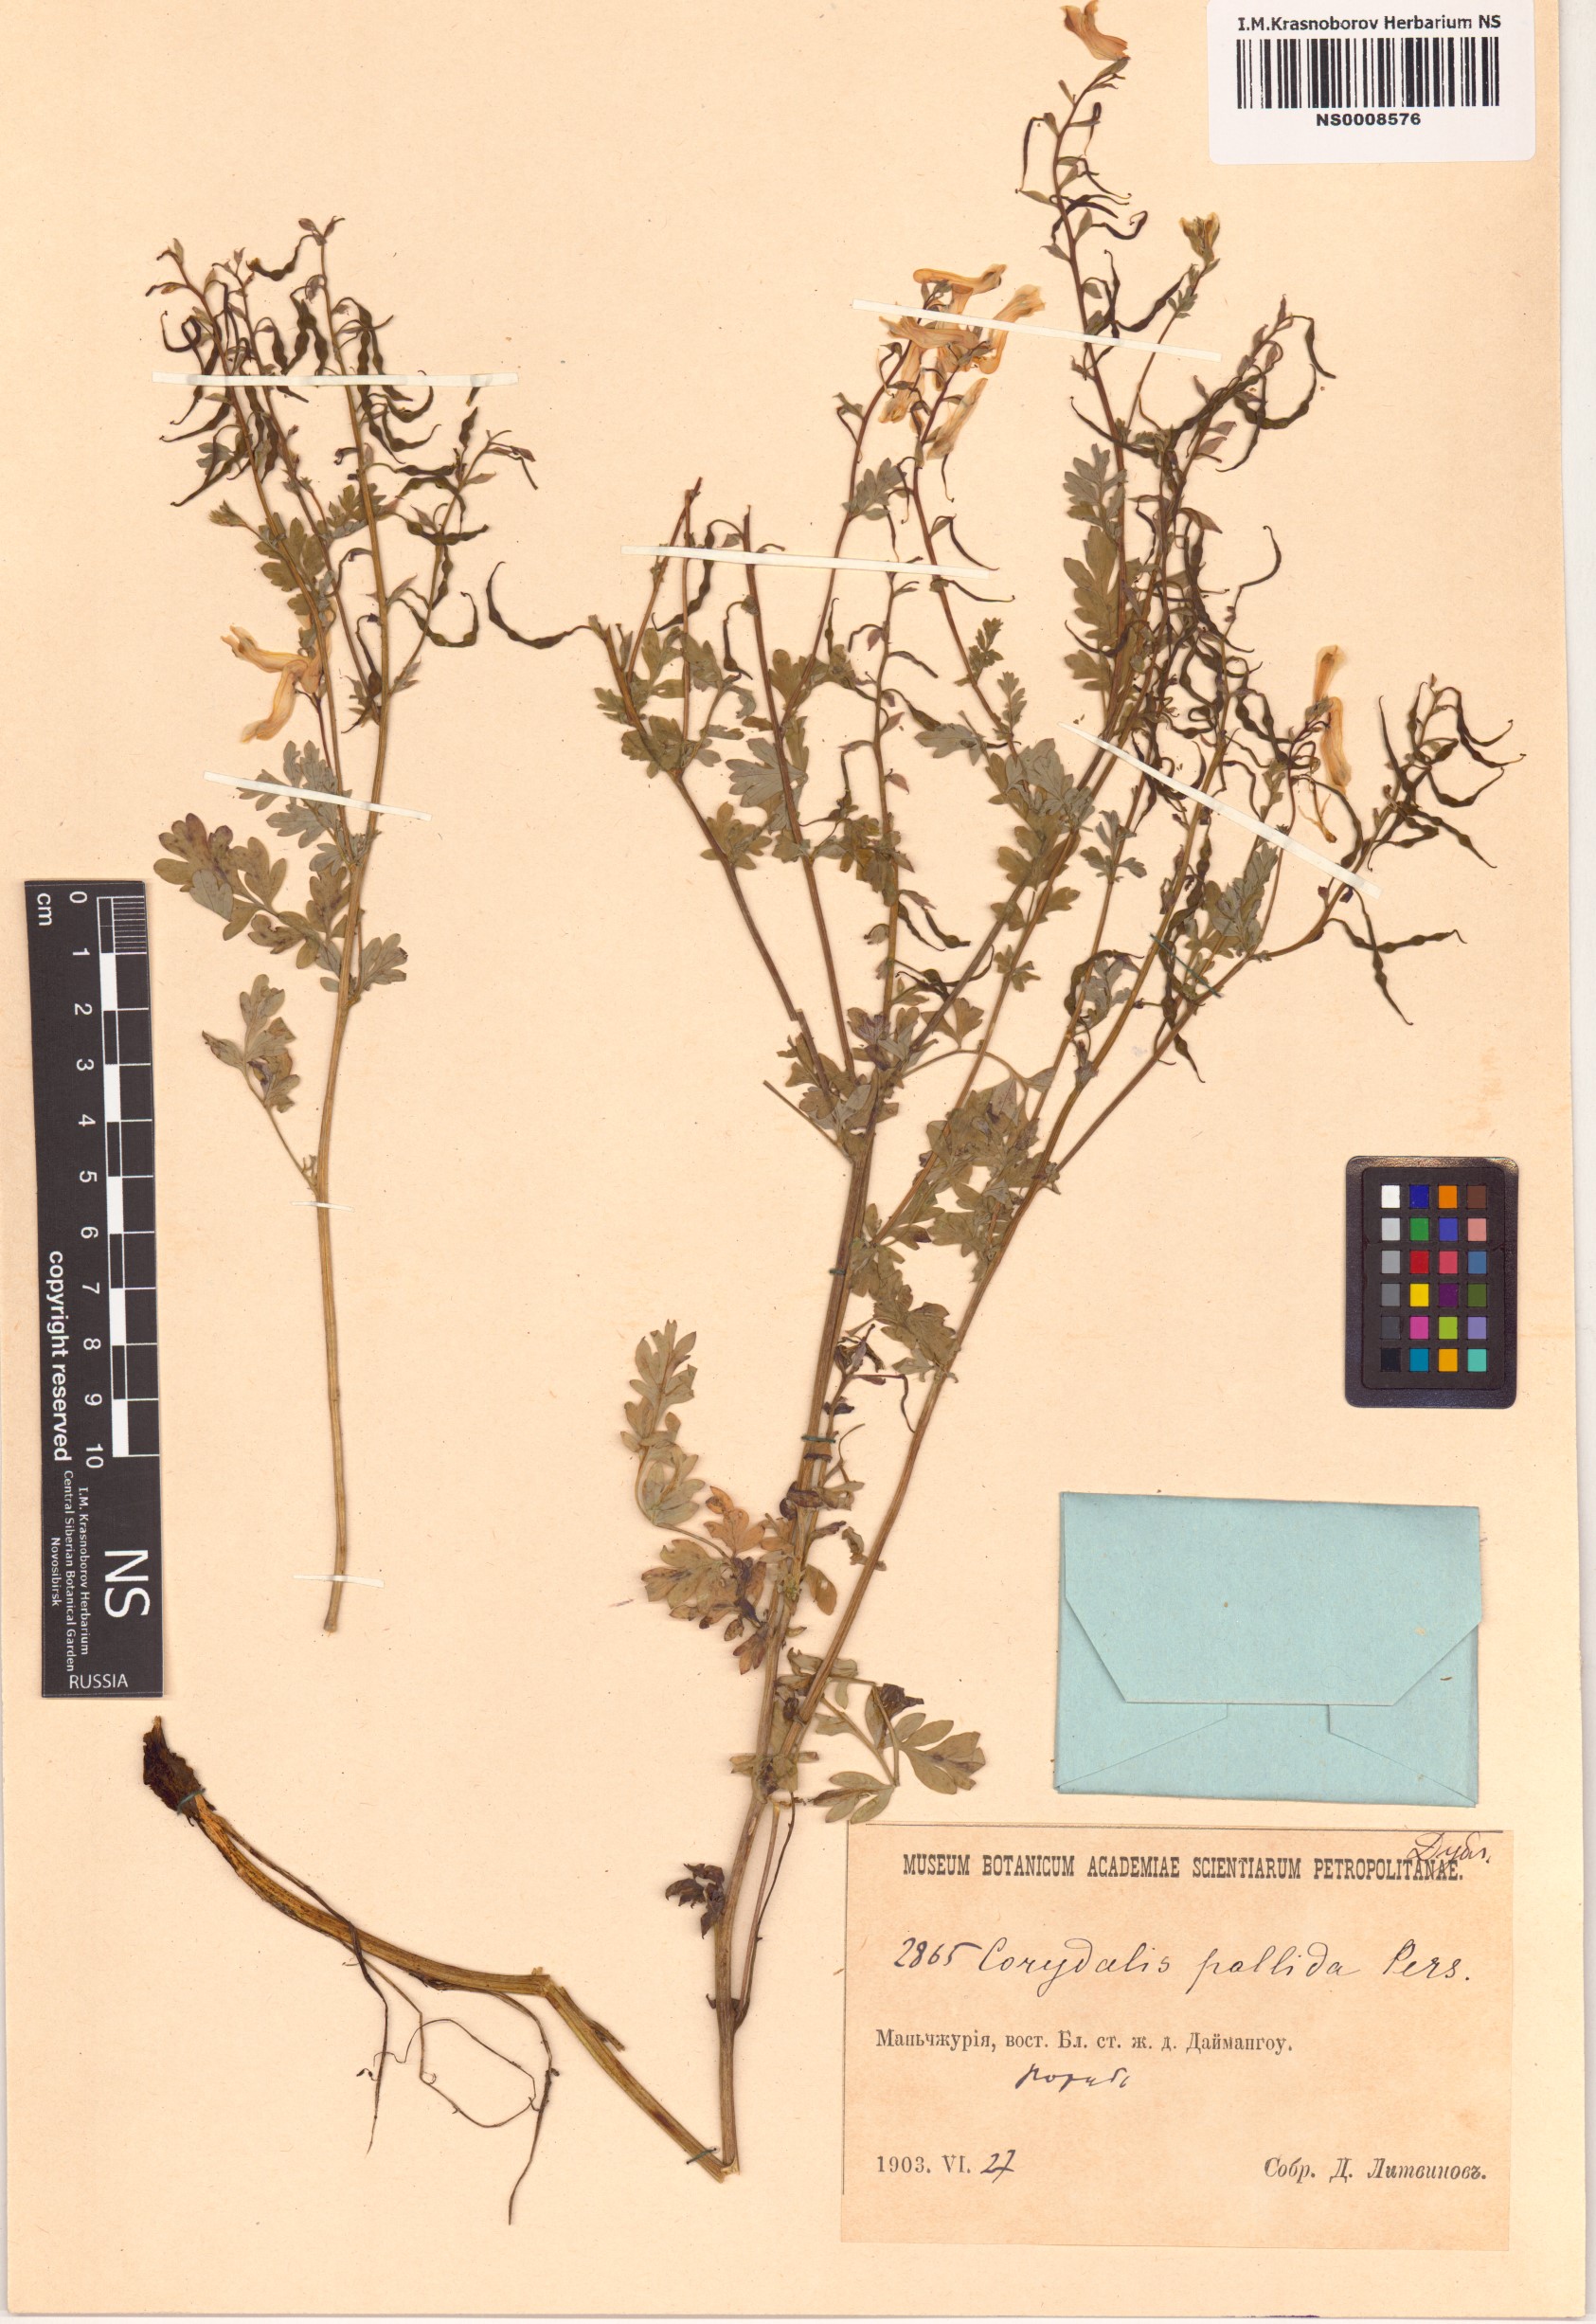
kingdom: Plantae
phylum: Tracheophyta
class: Magnoliopsida
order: Ranunculales
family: Papaveraceae
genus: Corydalis
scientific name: Corydalis pallida
